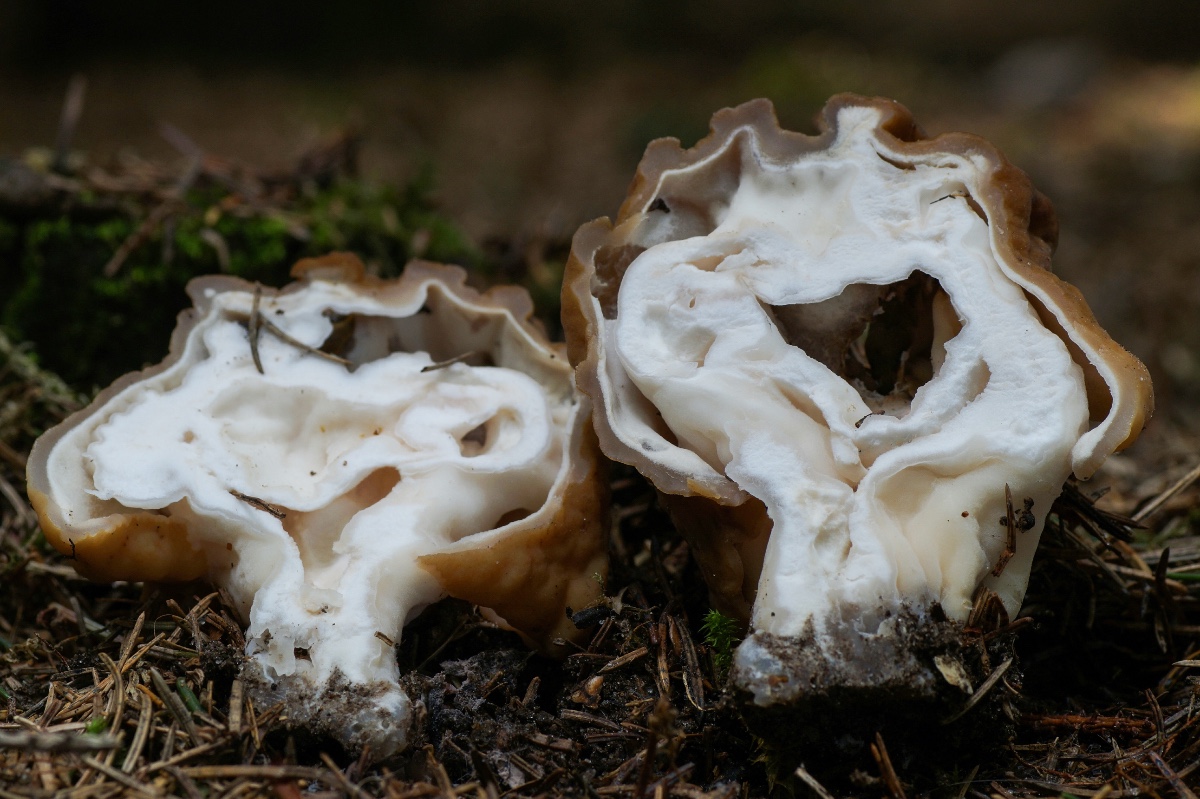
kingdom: Fungi
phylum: Ascomycota
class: Pezizomycetes
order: Pezizales
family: Discinaceae
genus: Gyromitra
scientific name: Gyromitra gigas
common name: kæmpe-stenmorkel
